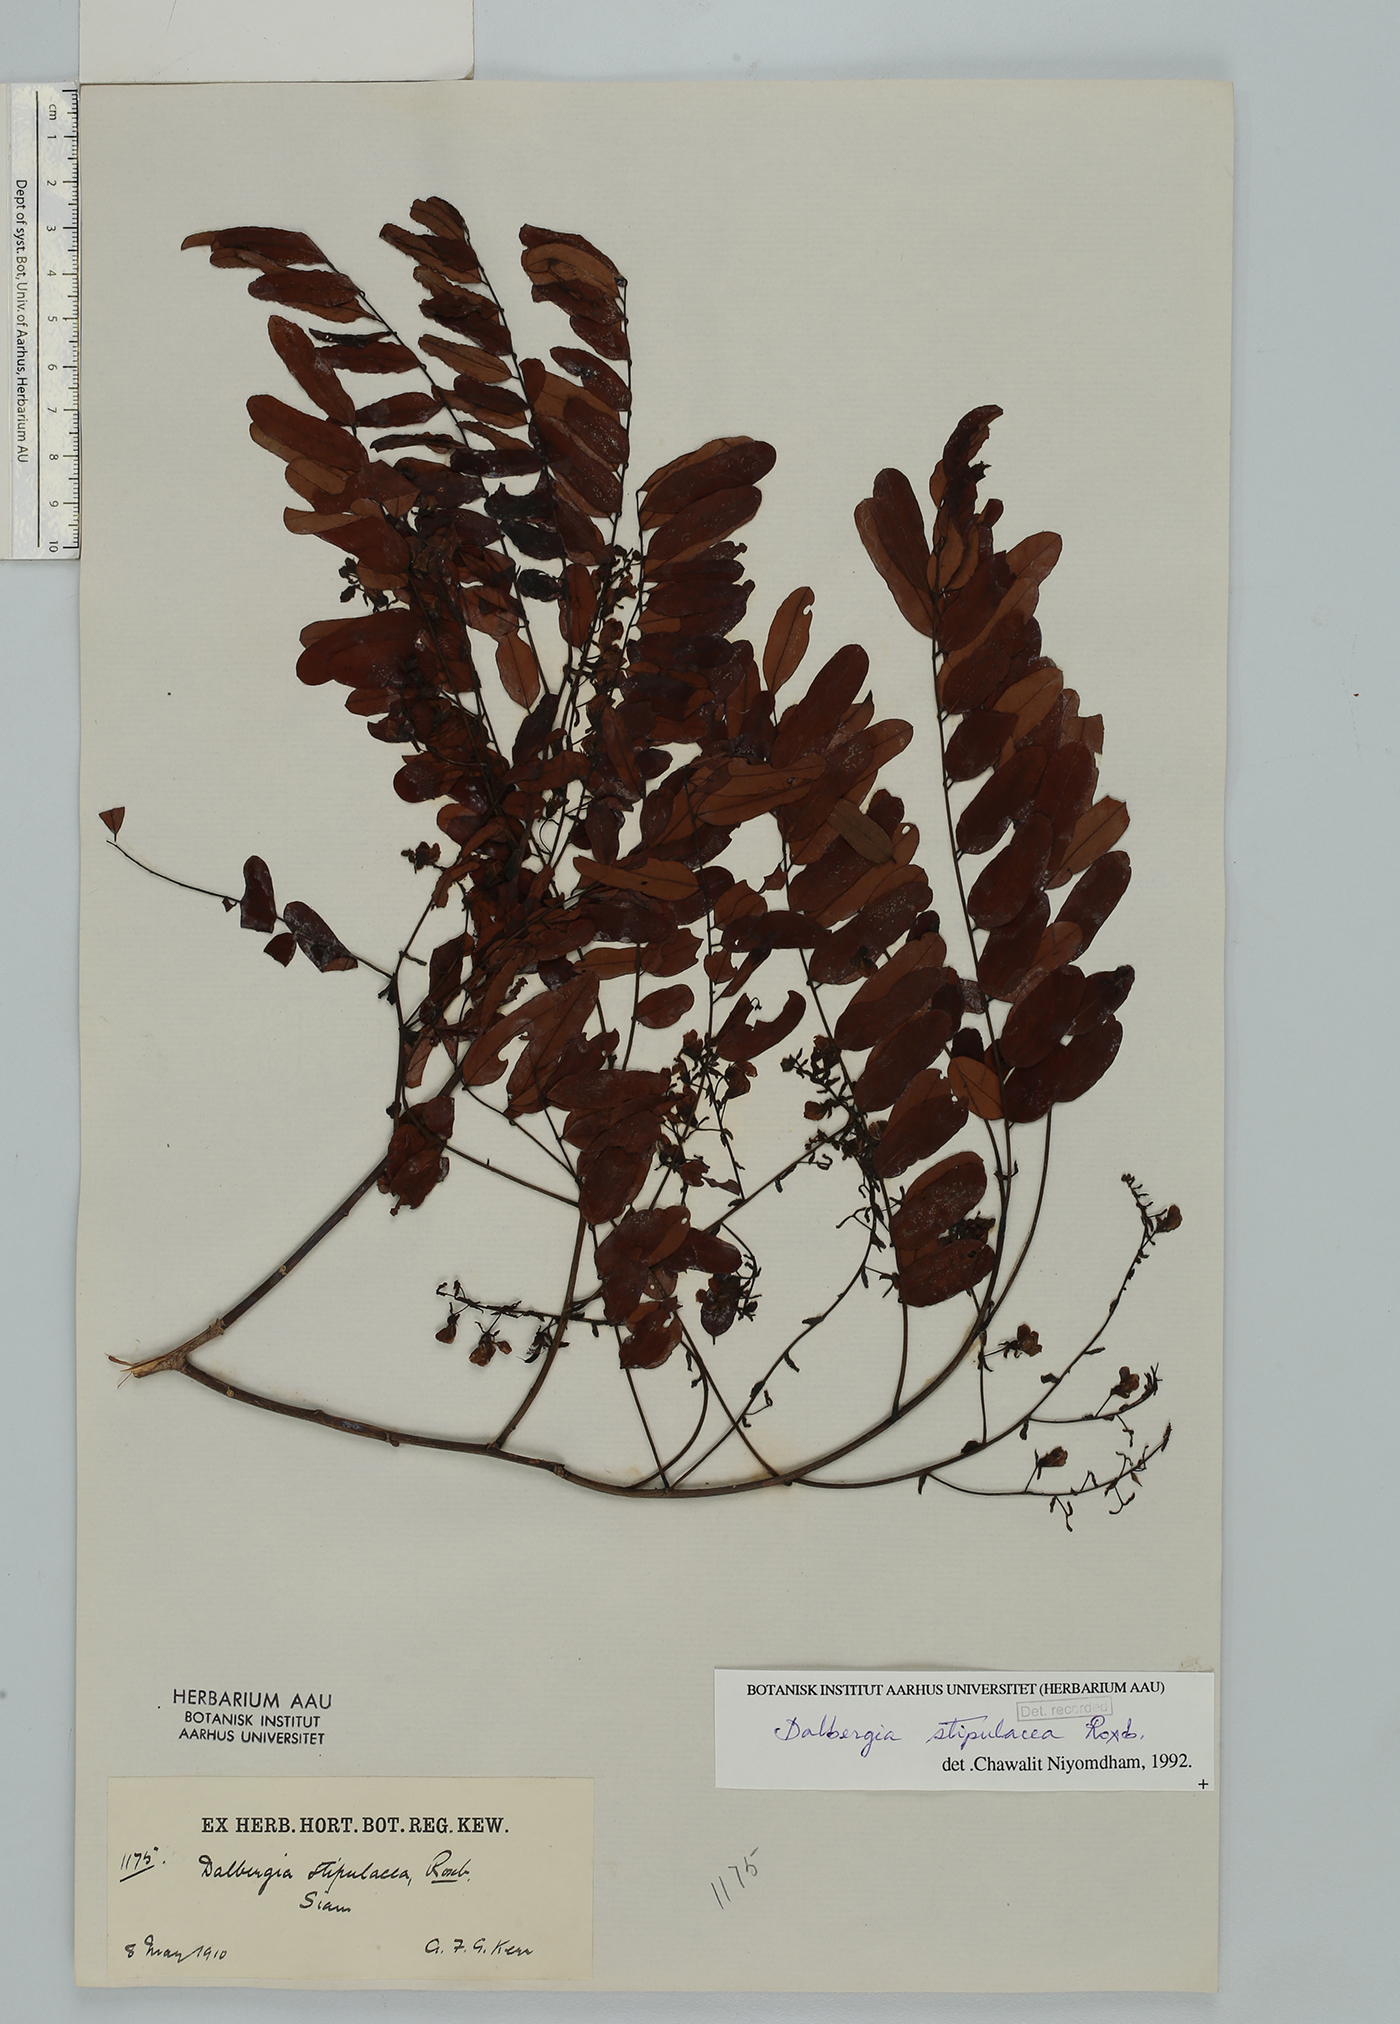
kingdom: Plantae
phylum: Tracheophyta
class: Magnoliopsida
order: Fabales
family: Fabaceae
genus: Dalbergia
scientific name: Dalbergia stipulacea
